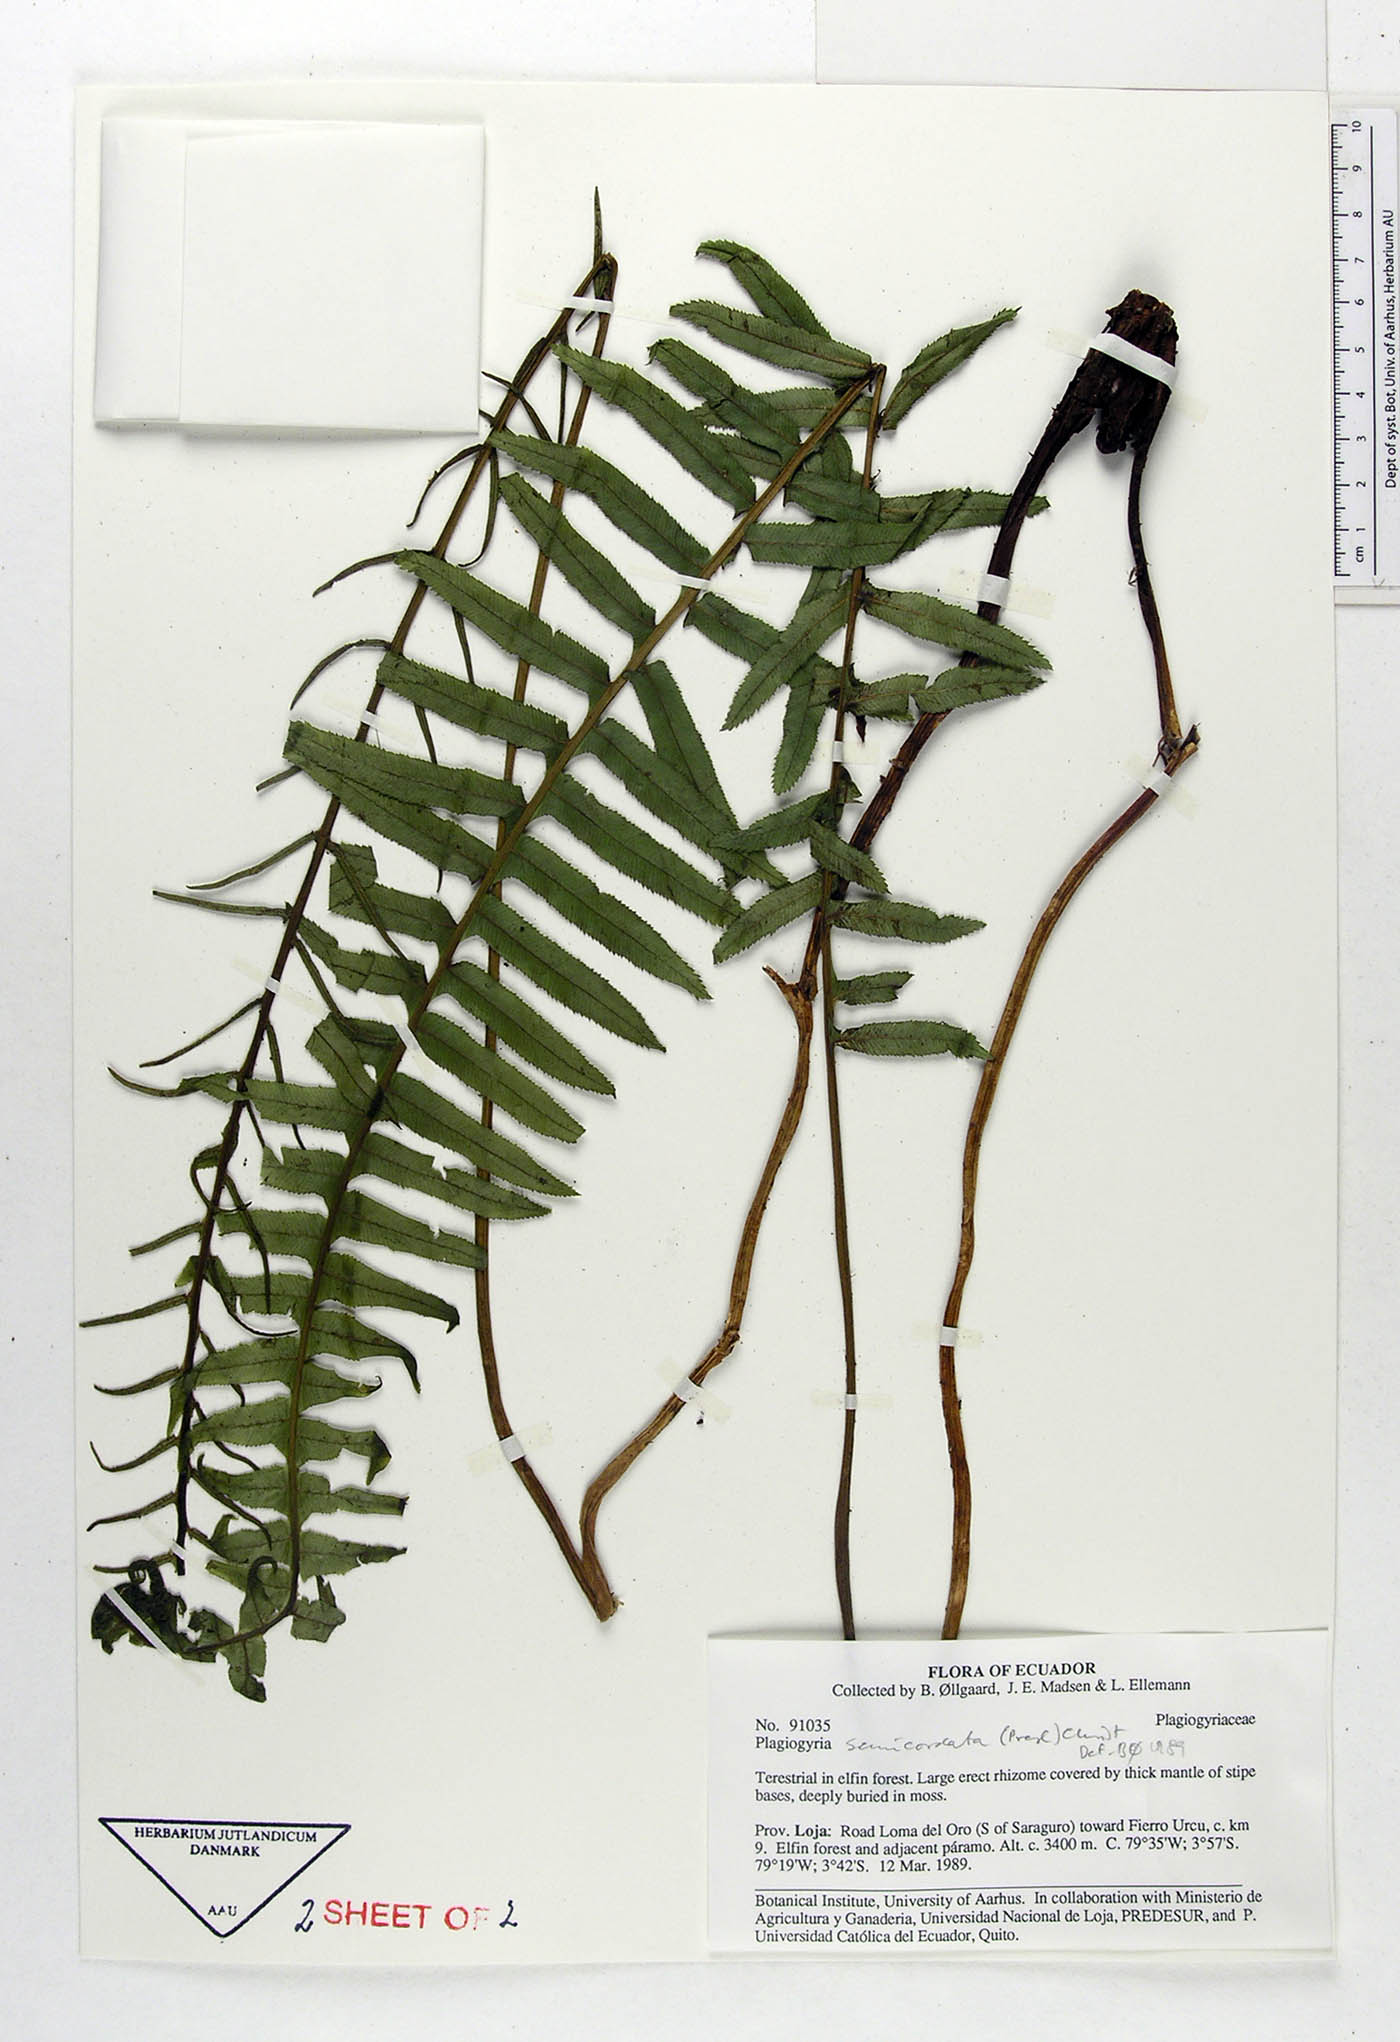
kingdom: Plantae
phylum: Tracheophyta
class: Polypodiopsida
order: Cyatheales
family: Plagiogyriaceae
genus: Plagiogyria
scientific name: Plagiogyria pectinata
